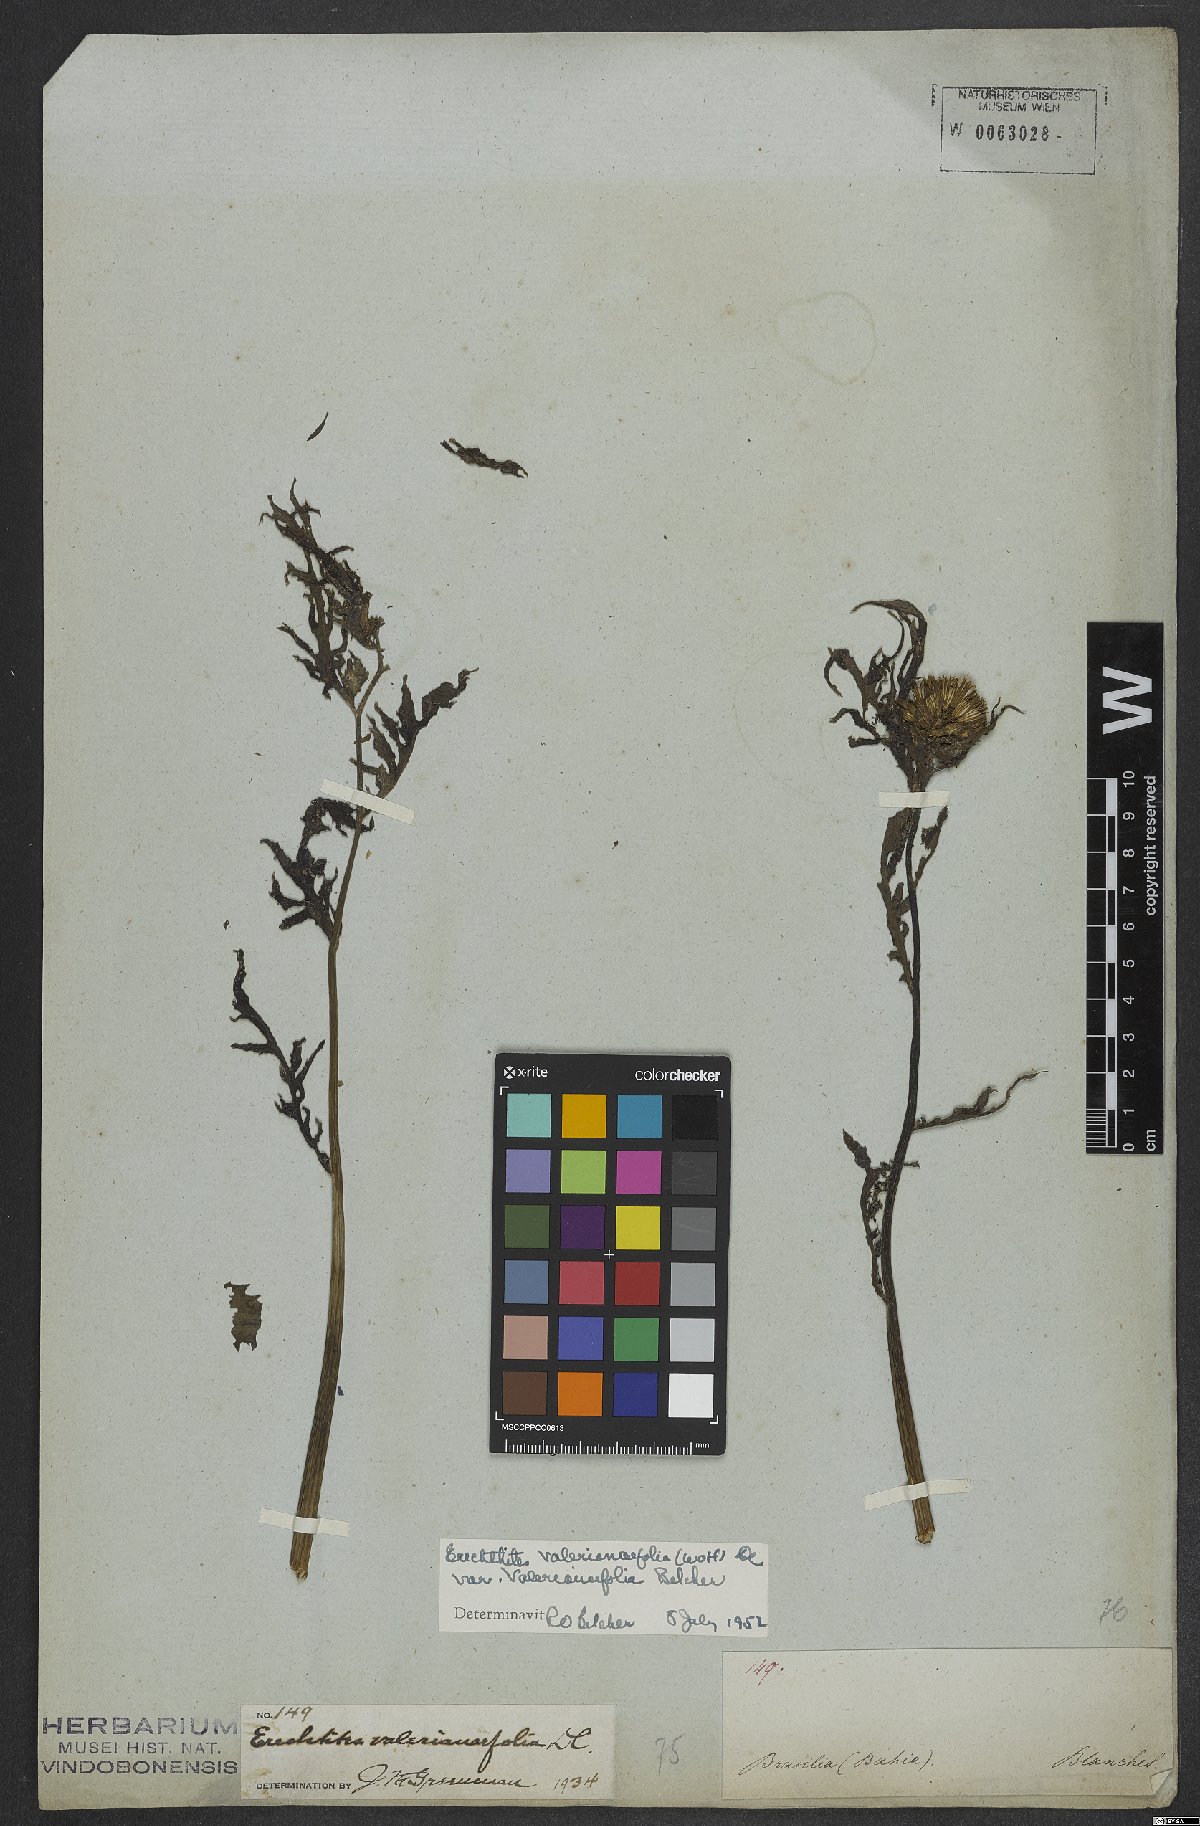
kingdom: Plantae
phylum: Tracheophyta
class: Magnoliopsida
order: Asterales
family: Asteraceae
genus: Erechtites
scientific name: Erechtites valerianifolius
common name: Tropical burnweed
